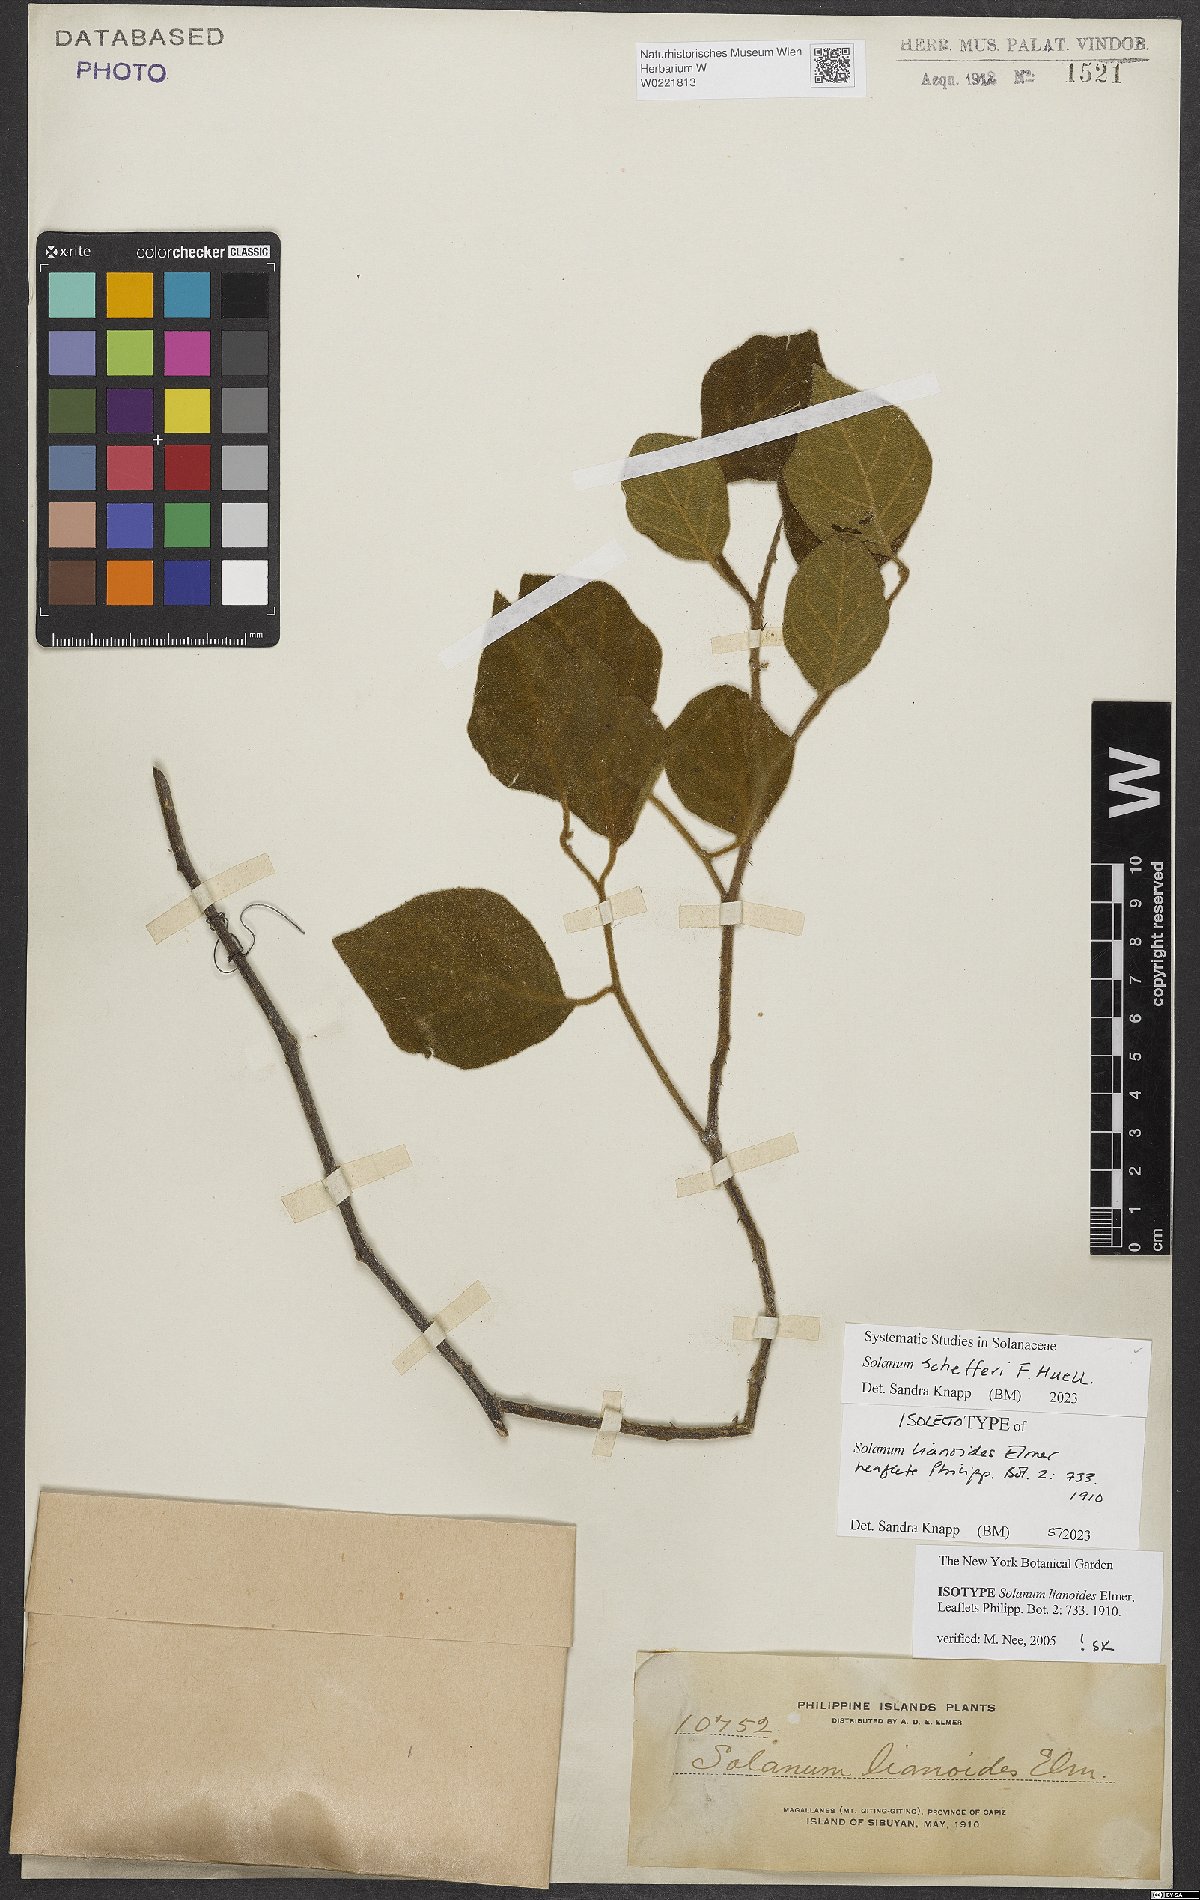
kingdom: Plantae
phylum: Tracheophyta
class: Magnoliopsida
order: Solanales
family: Solanaceae
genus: Solanum
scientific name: Solanum schefferi
